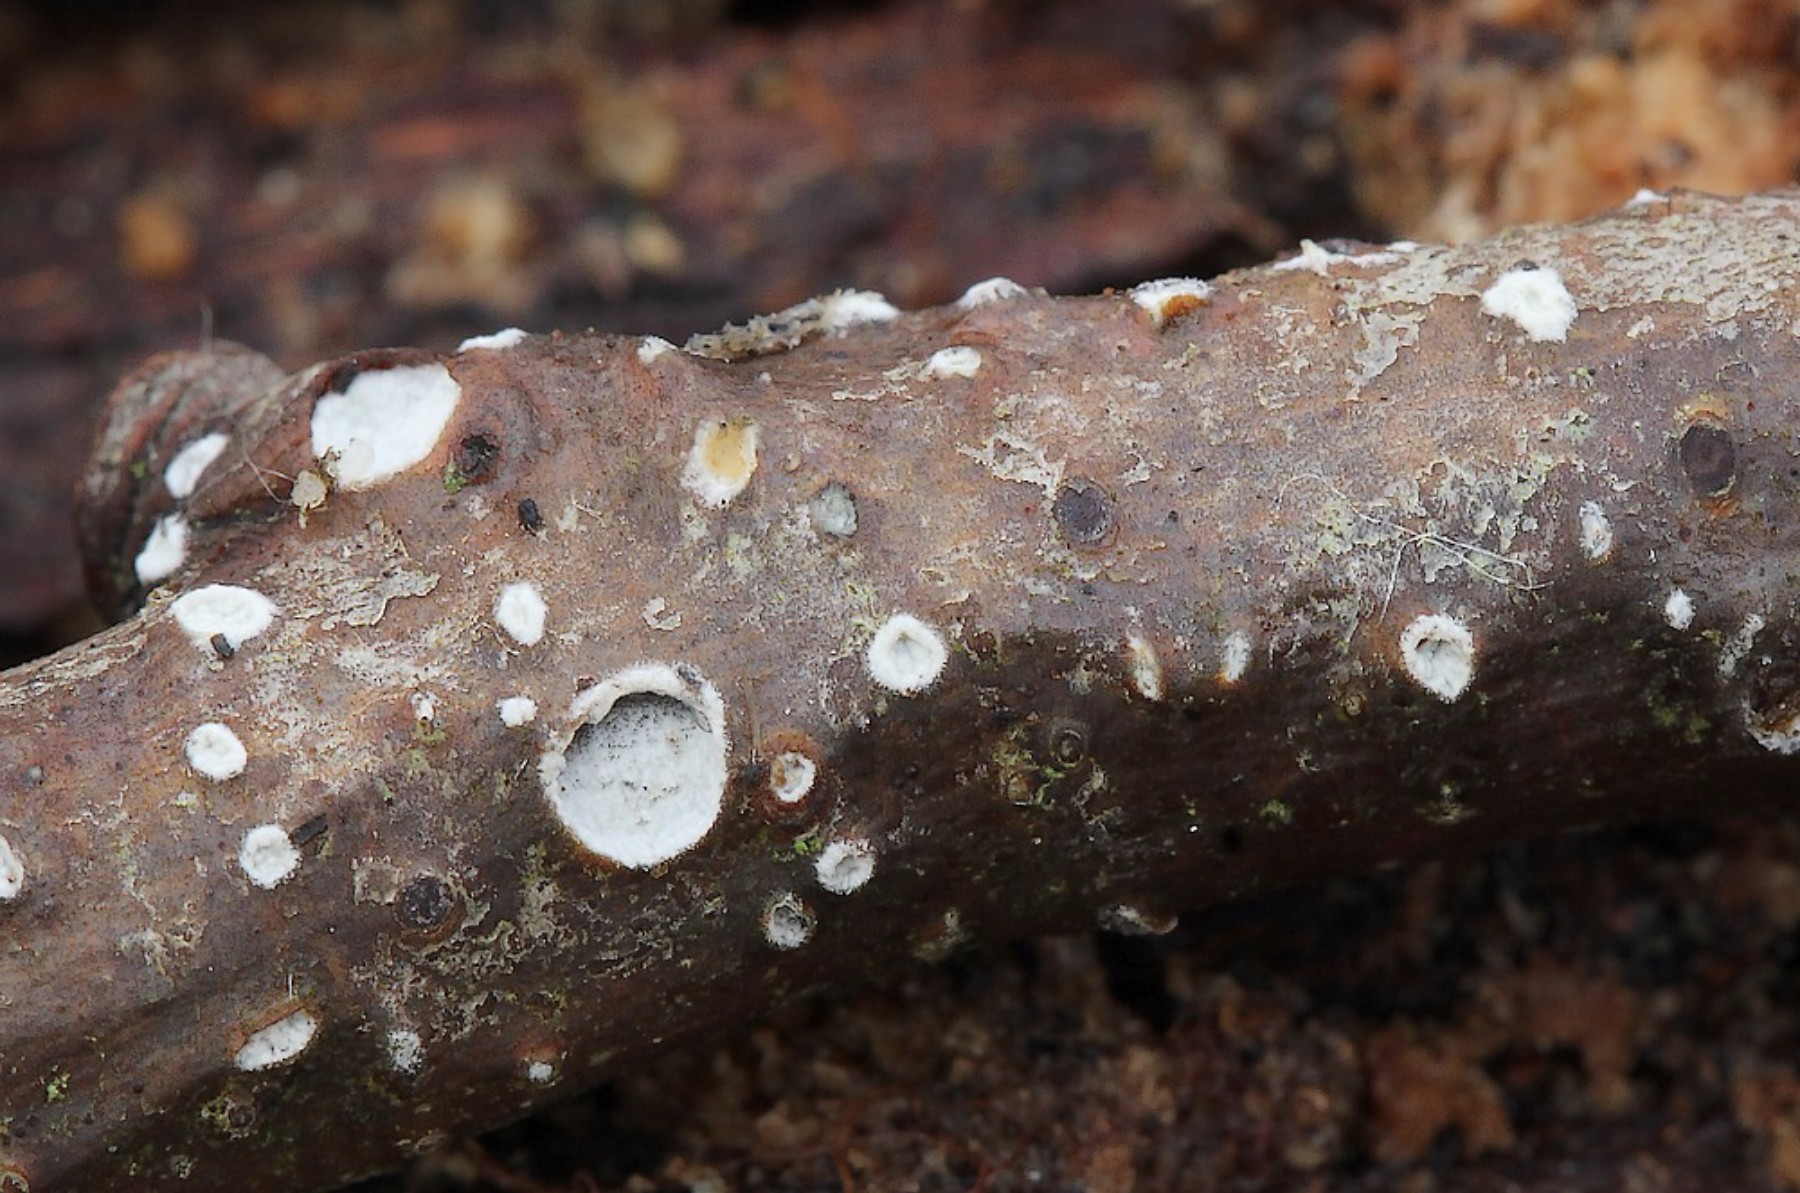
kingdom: Fungi
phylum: Basidiomycota
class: Agaricomycetes
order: Corticiales
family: Corticiaceae
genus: Lyomyces
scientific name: Lyomyces sambuci
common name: almindelig hyldehinde
